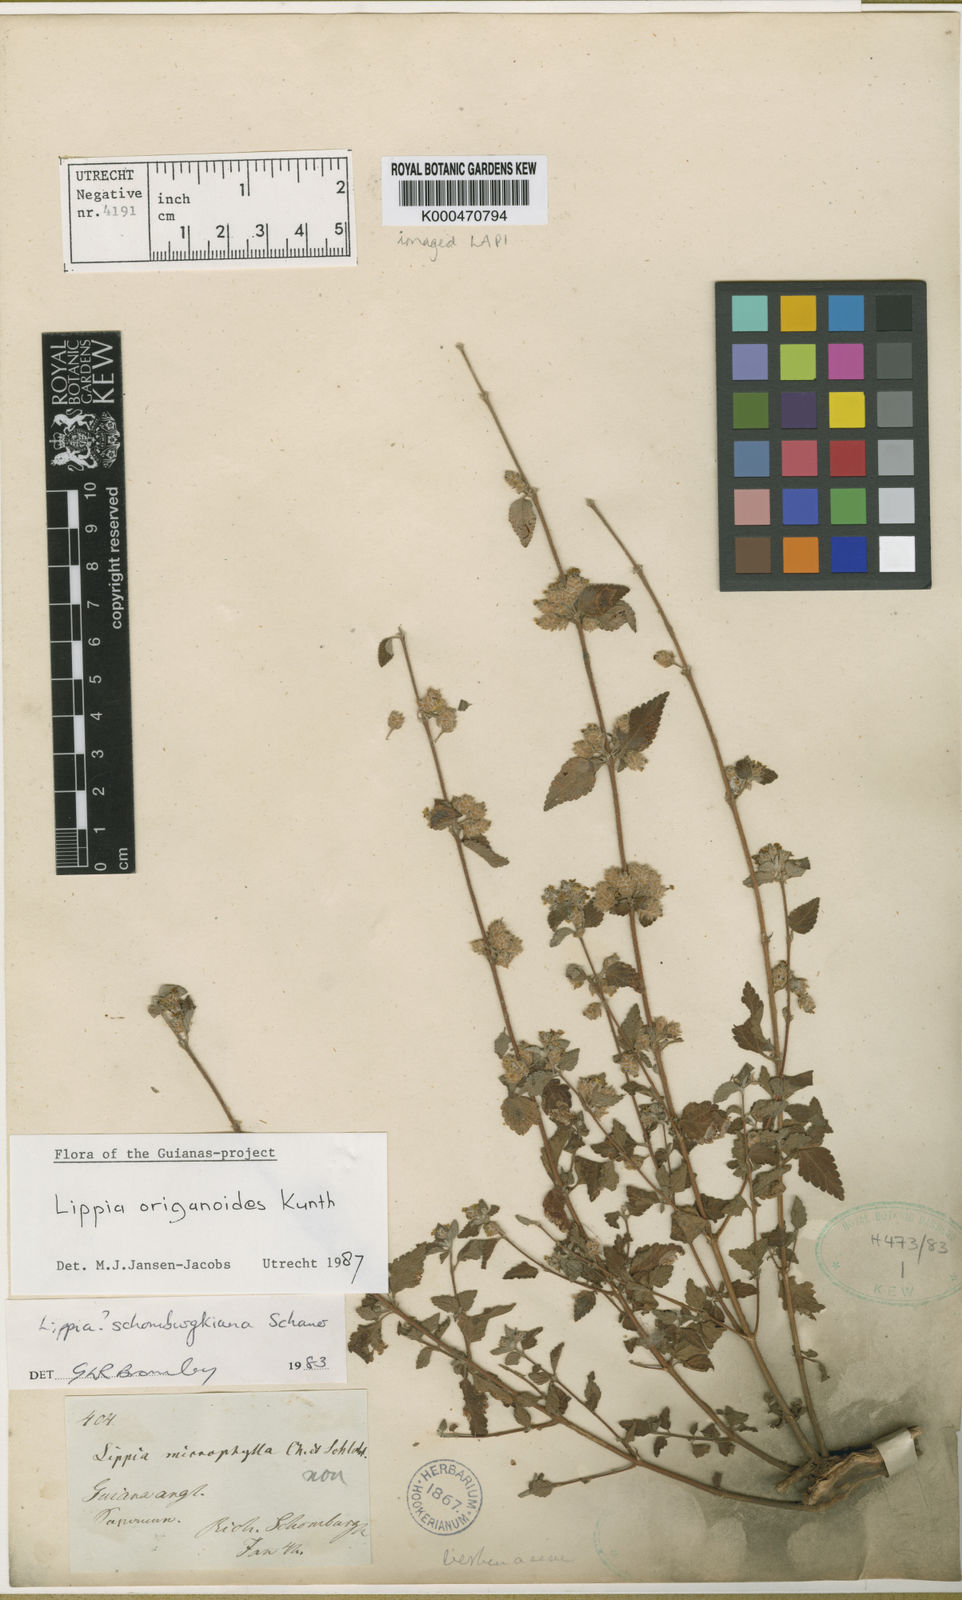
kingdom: Plantae
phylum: Tracheophyta
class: Magnoliopsida
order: Lamiales
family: Verbenaceae
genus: Lippia
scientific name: Lippia origanoides
